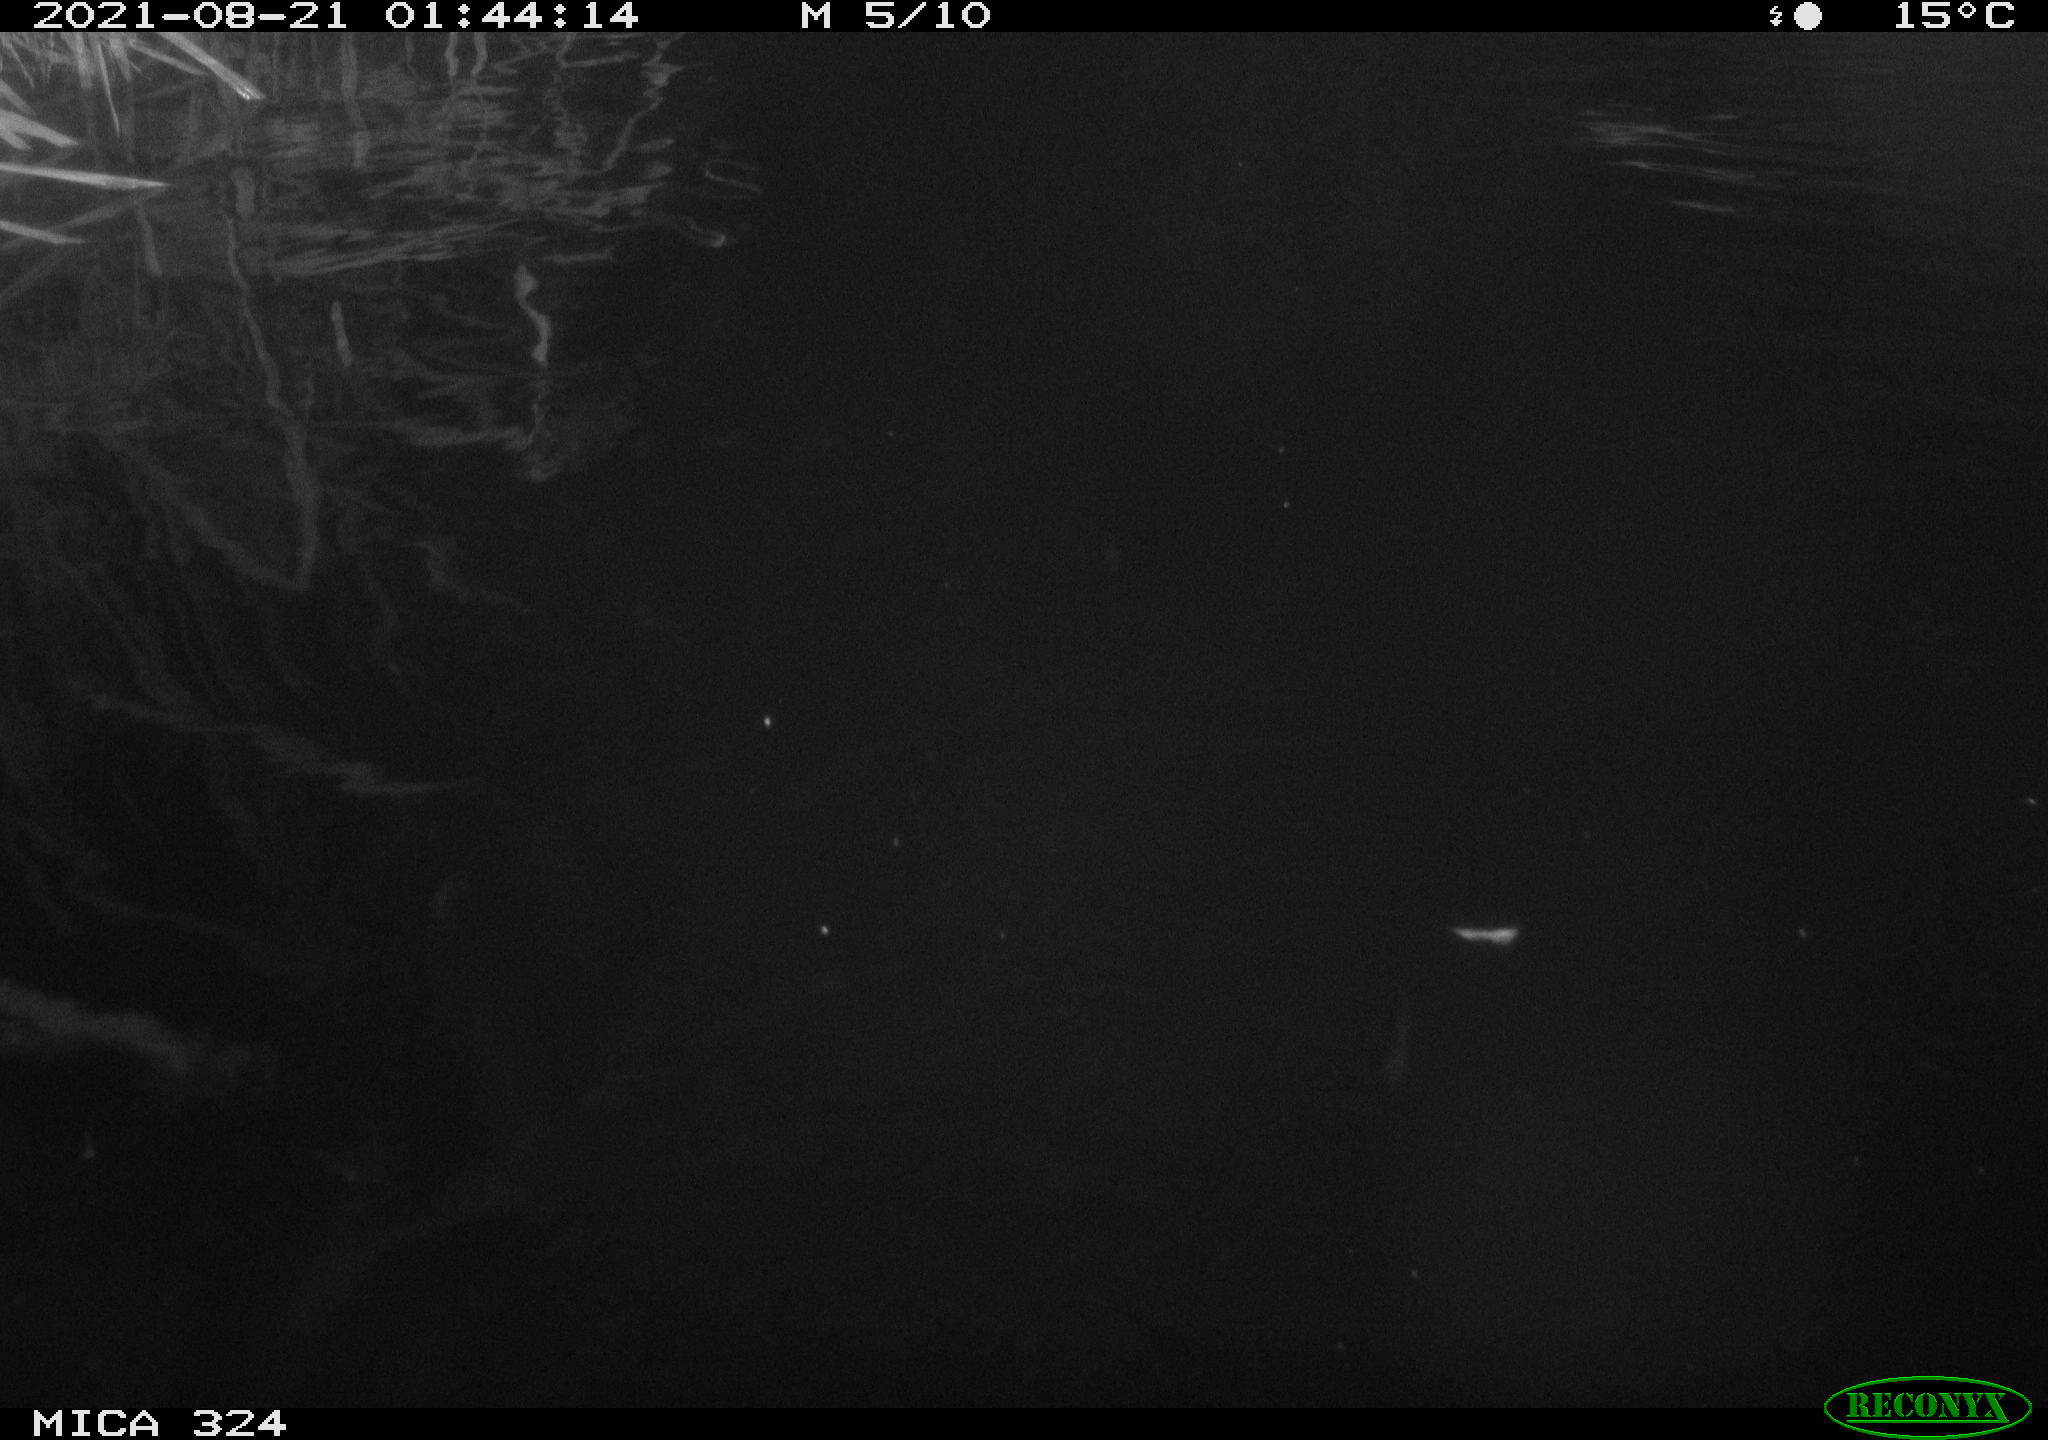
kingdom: Animalia
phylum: Chordata
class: Mammalia
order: Rodentia
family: Cricetidae
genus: Ondatra
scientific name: Ondatra zibethicus
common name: Muskrat
